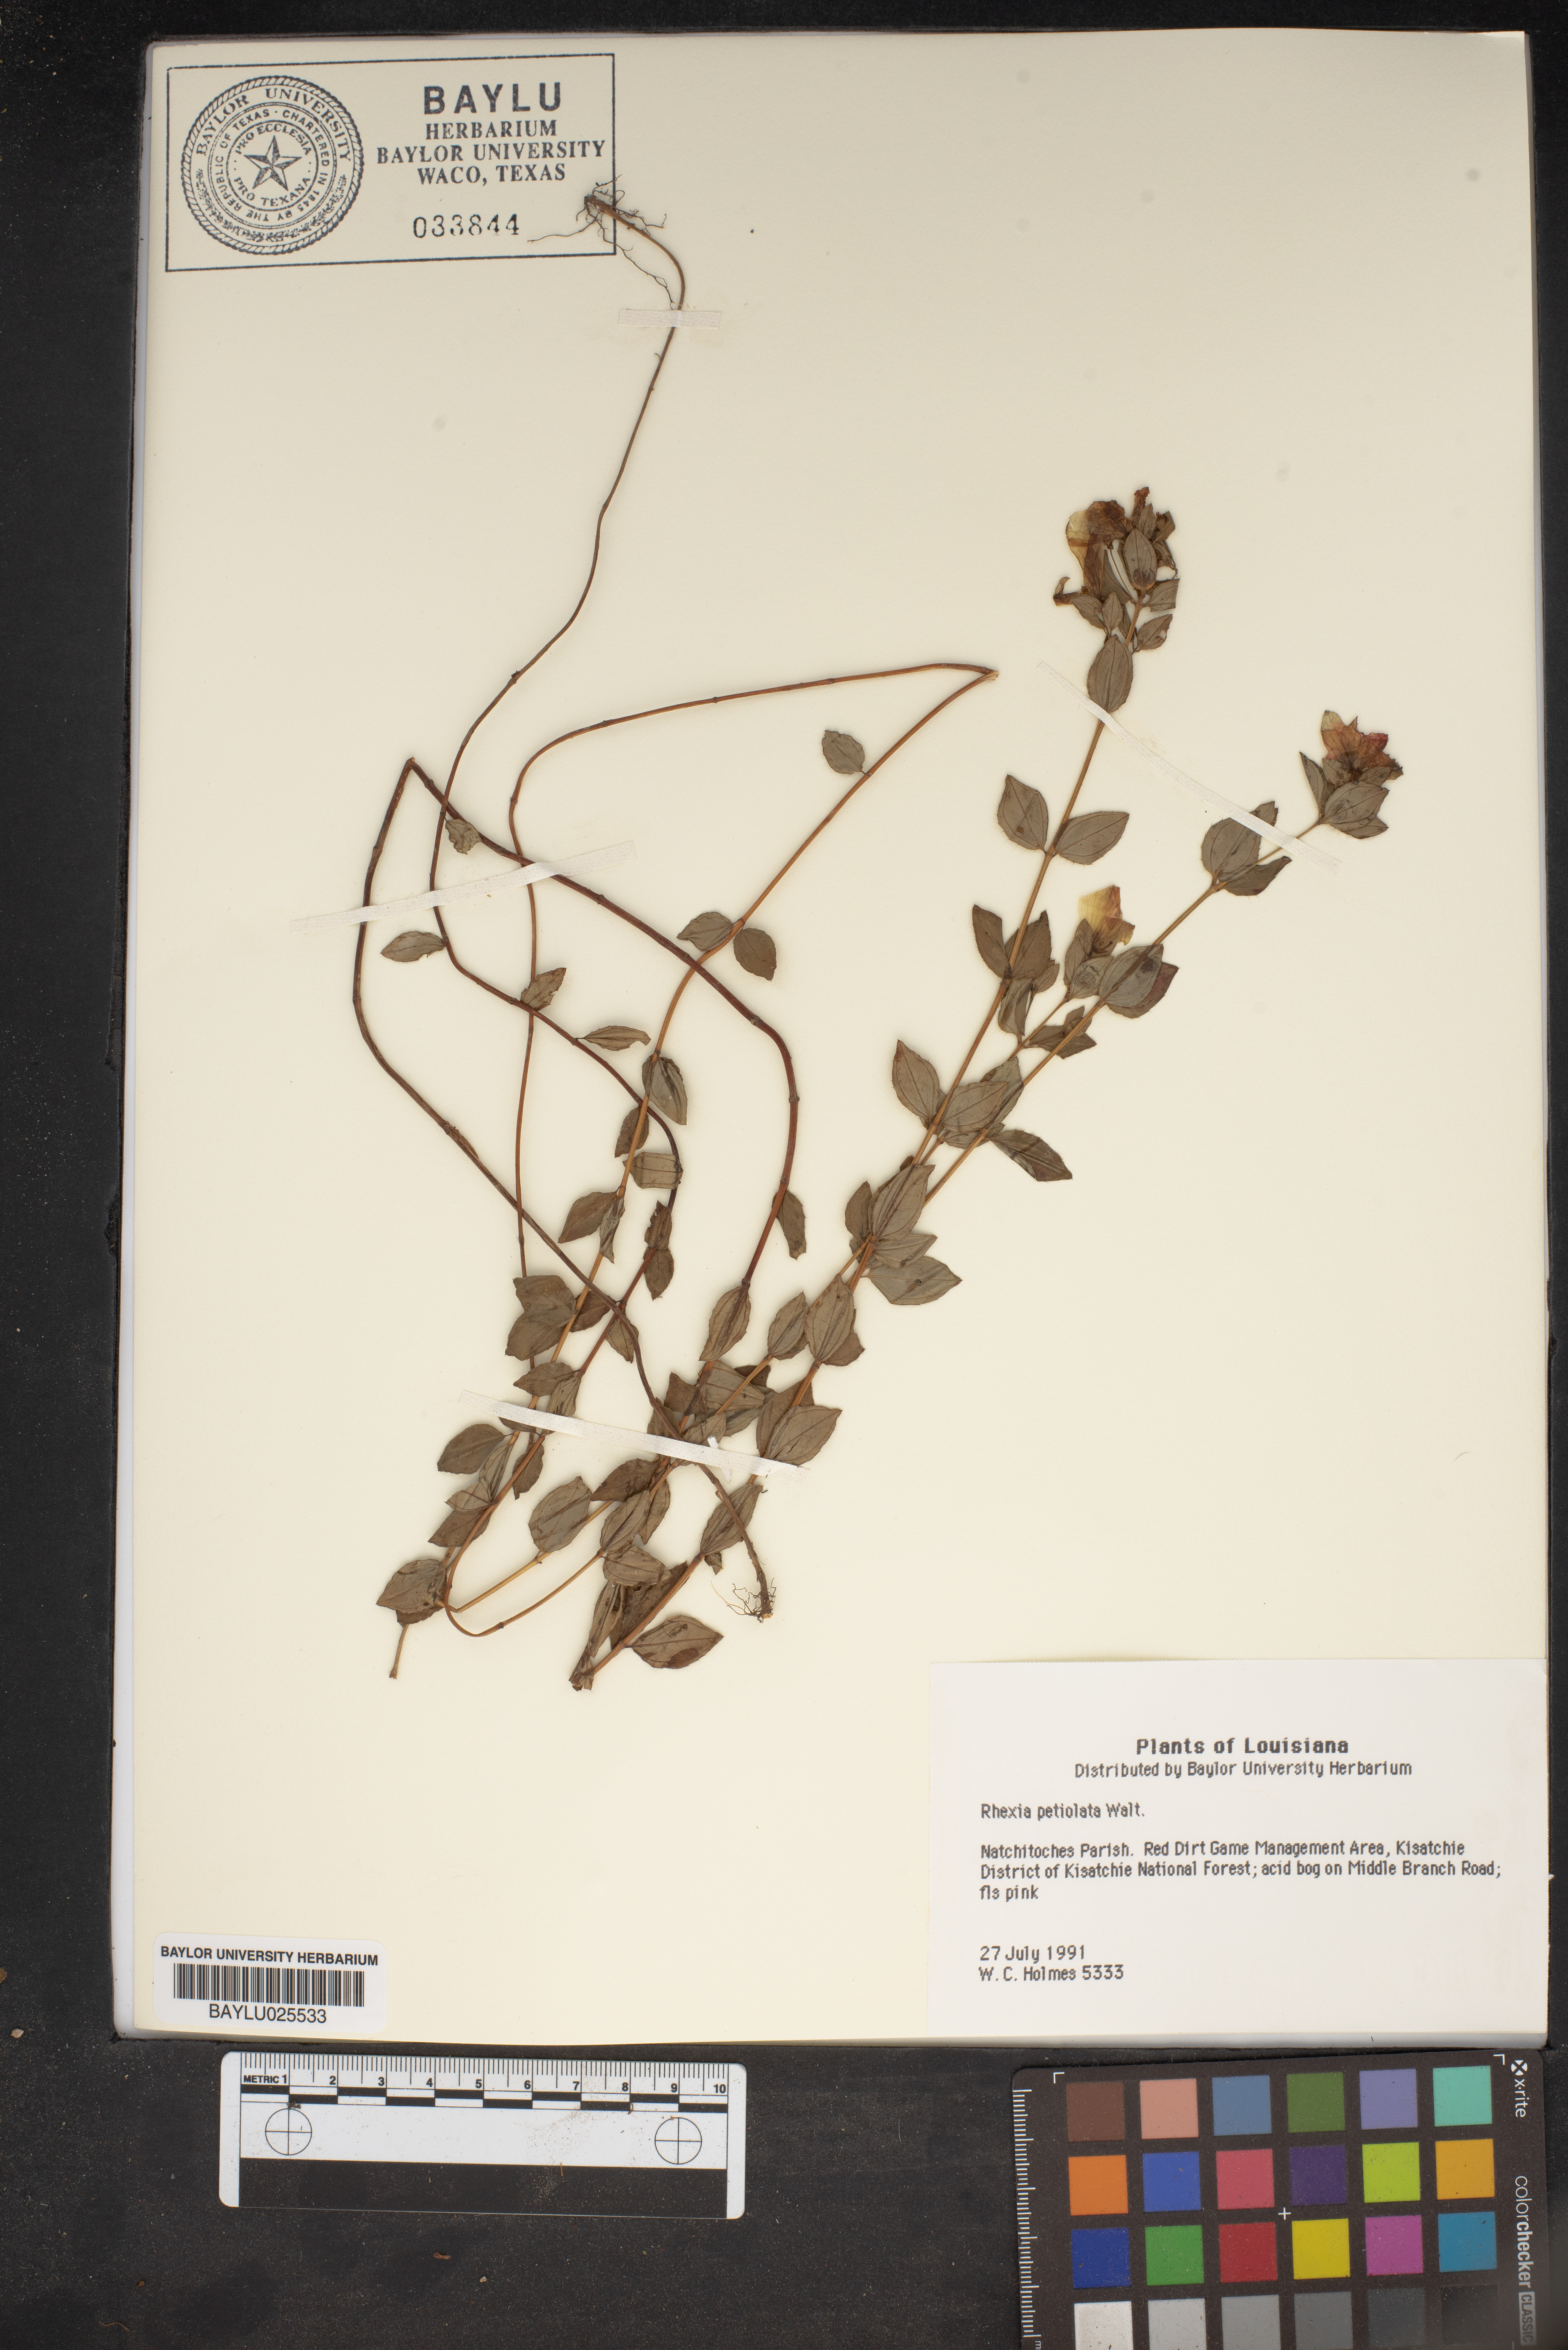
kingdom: Plantae
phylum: Tracheophyta
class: Magnoliopsida
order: Myrtales
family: Melastomataceae
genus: Rhexia
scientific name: Rhexia petiolata
